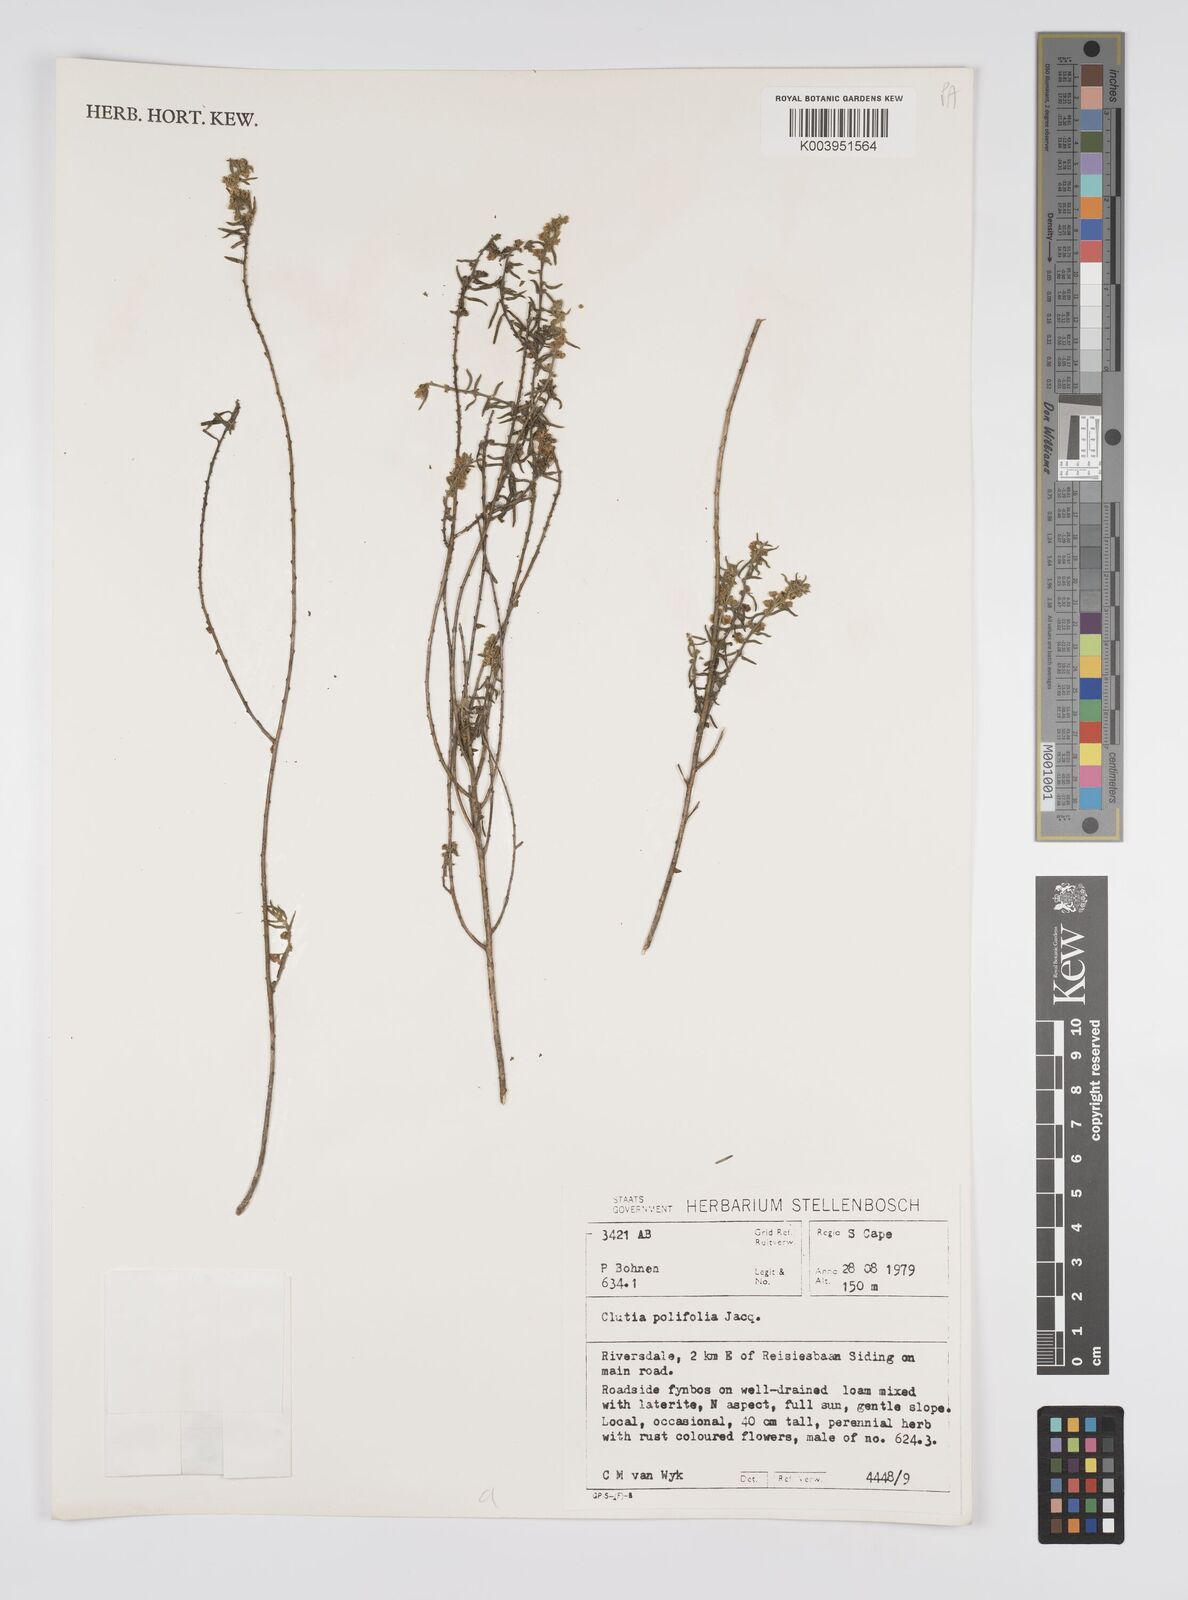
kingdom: Plantae
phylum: Tracheophyta
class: Magnoliopsida
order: Malpighiales
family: Peraceae
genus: Clutia
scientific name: Clutia
